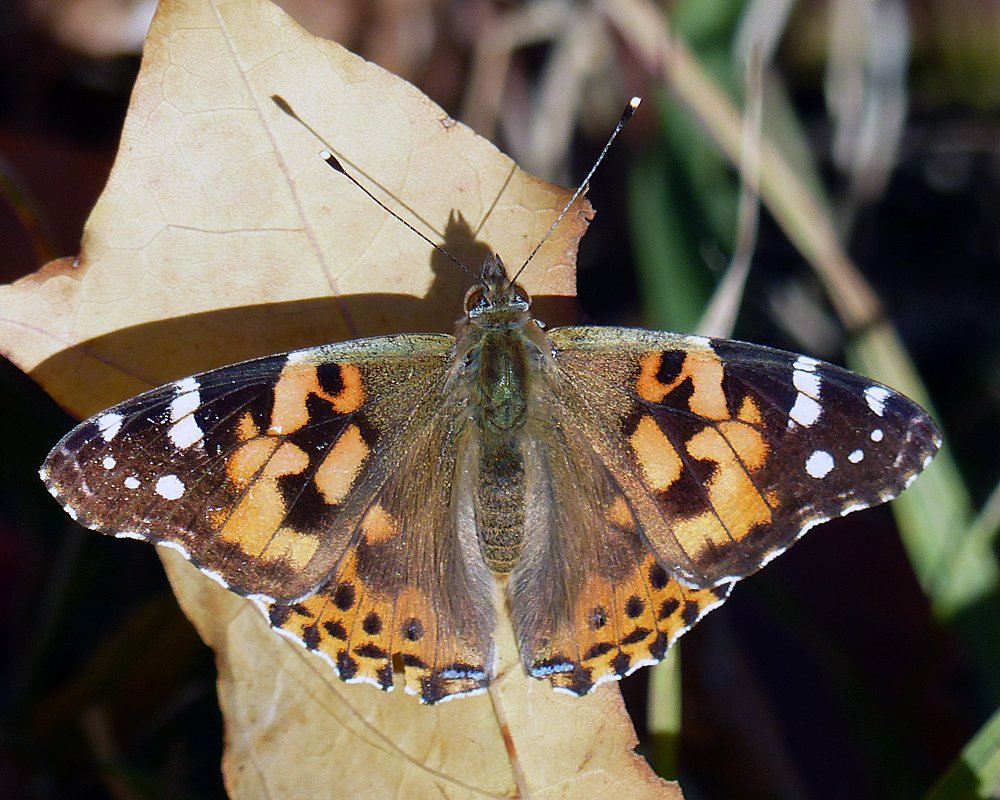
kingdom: Animalia
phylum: Arthropoda
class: Insecta
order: Lepidoptera
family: Nymphalidae
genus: Vanessa
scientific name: Vanessa cardui
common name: Painted Lady
